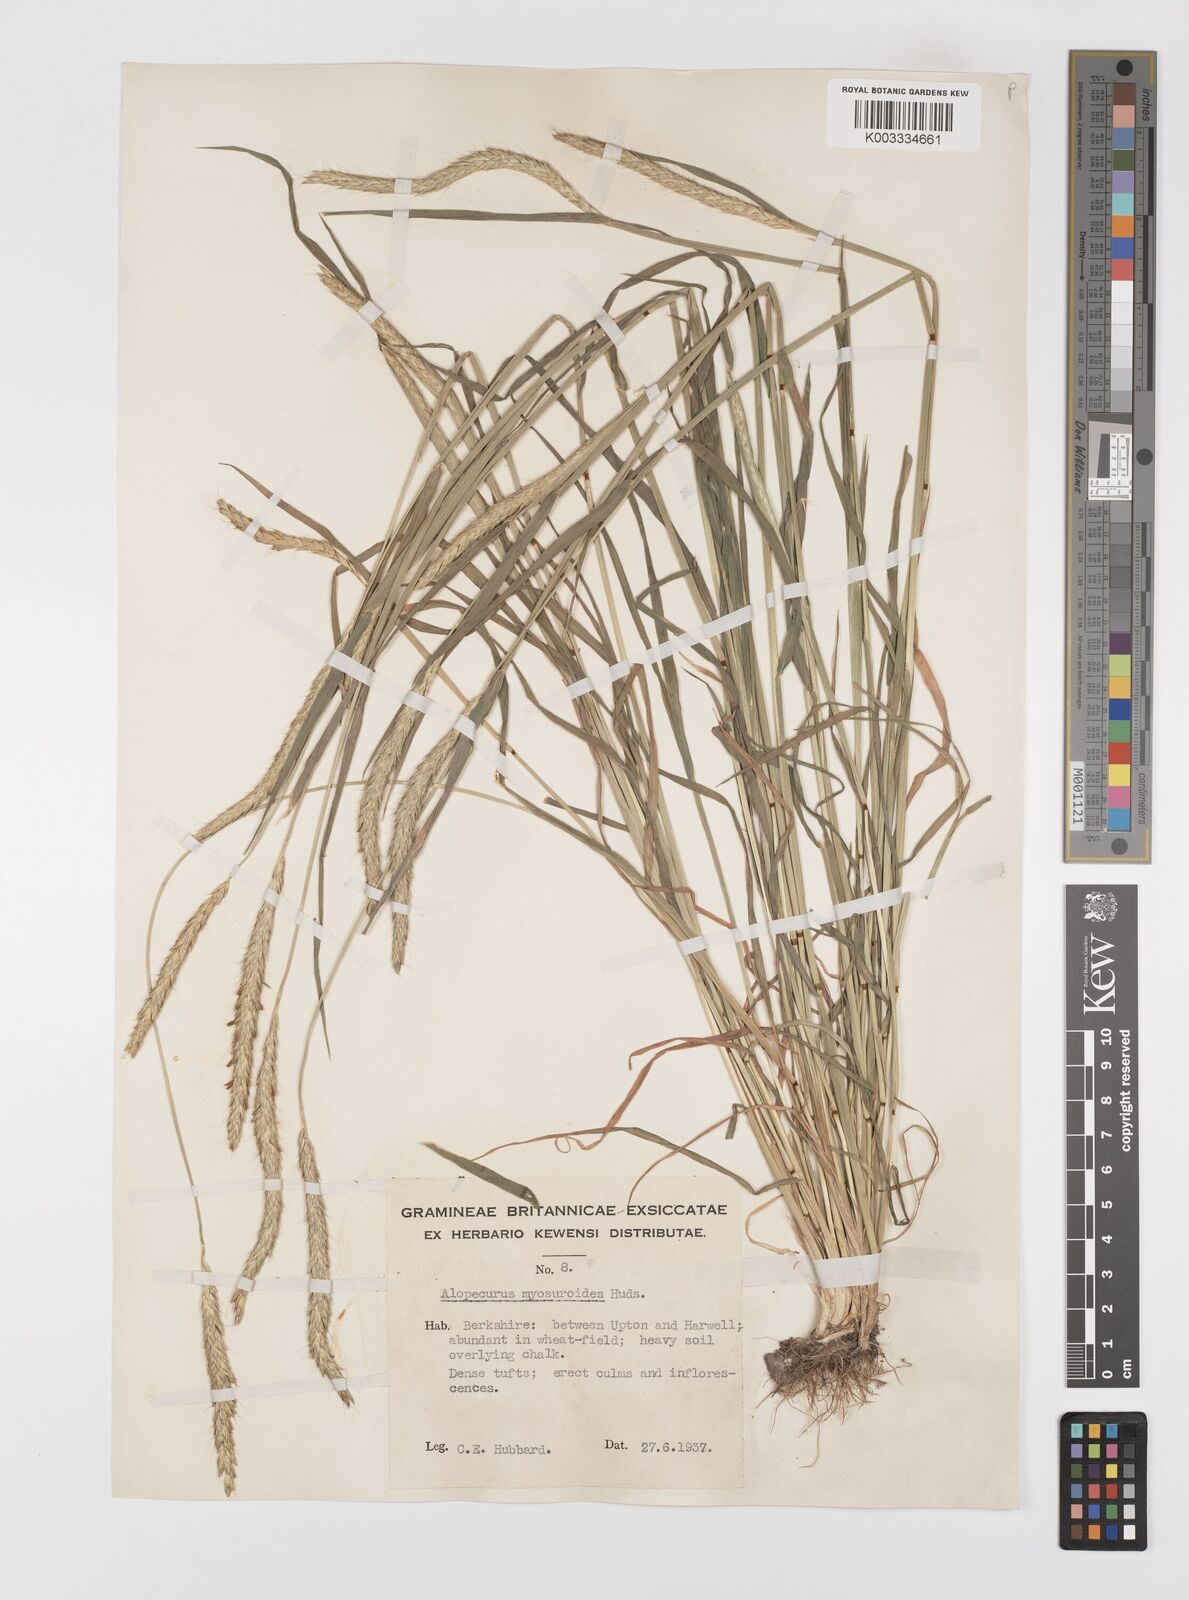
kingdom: Plantae
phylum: Tracheophyta
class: Liliopsida
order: Poales
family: Poaceae
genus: Alopecurus
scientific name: Alopecurus myosuroides
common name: Black-grass
